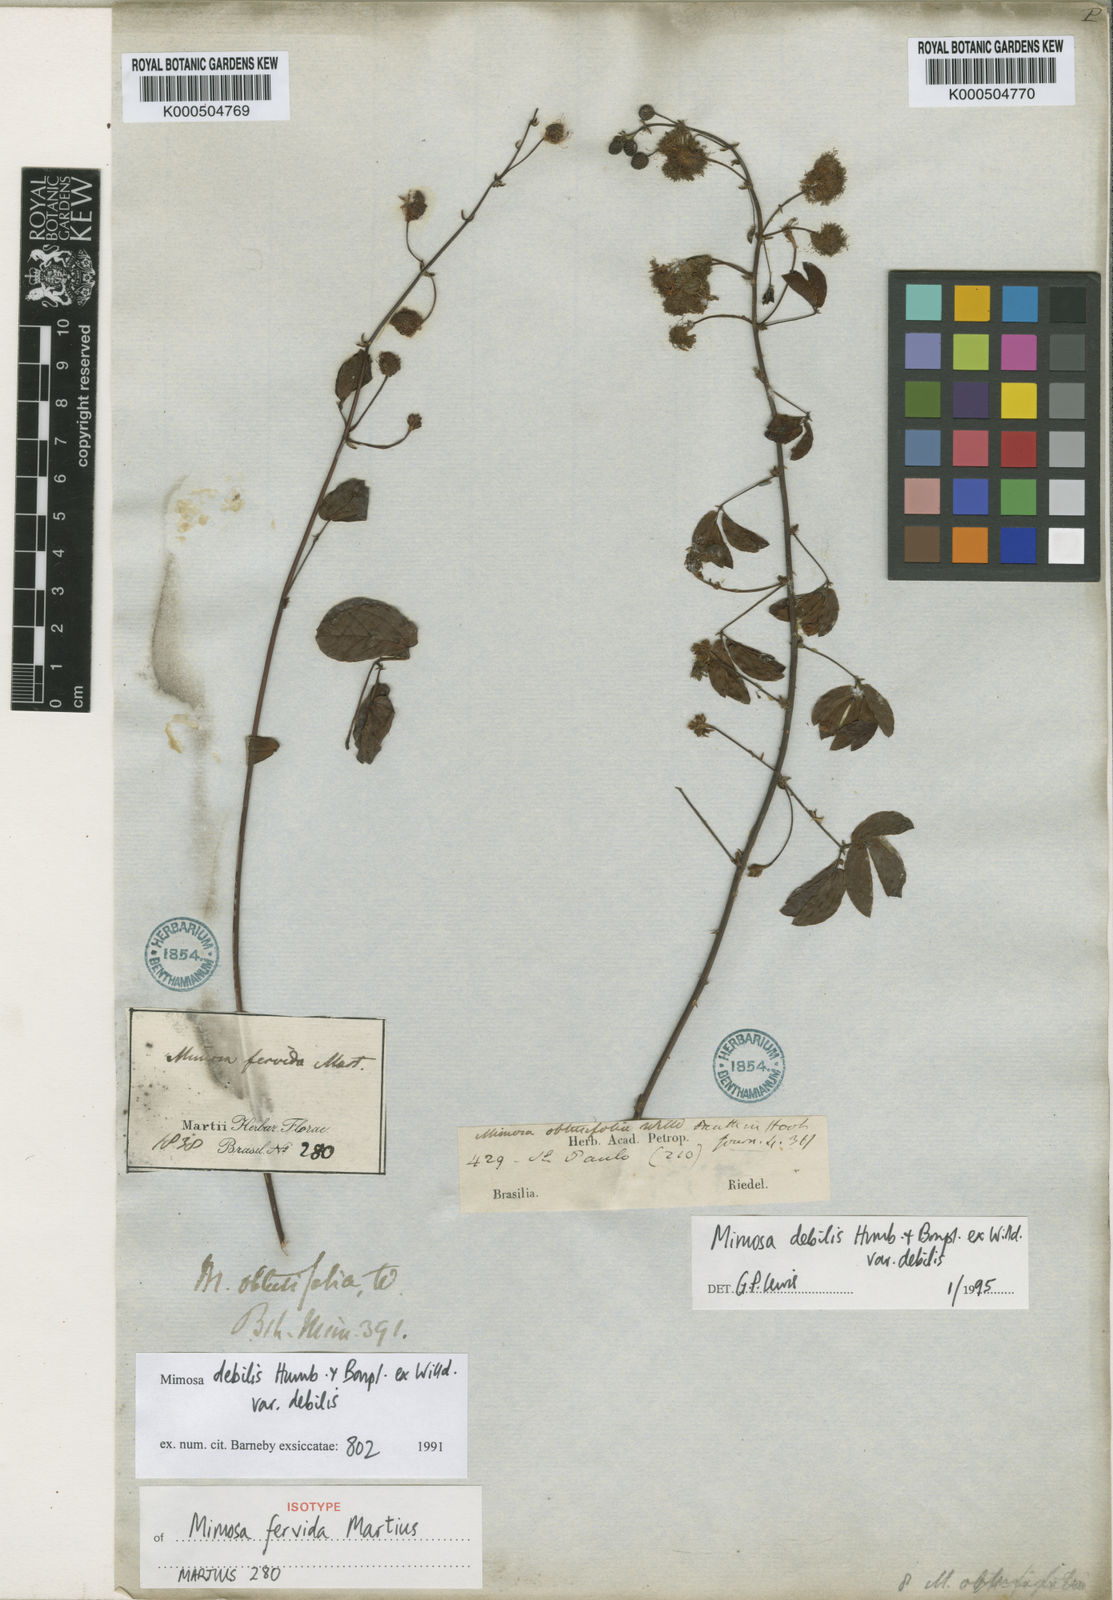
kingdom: Plantae
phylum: Tracheophyta
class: Magnoliopsida
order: Fabales
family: Fabaceae
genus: Mimosa
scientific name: Mimosa debilis
